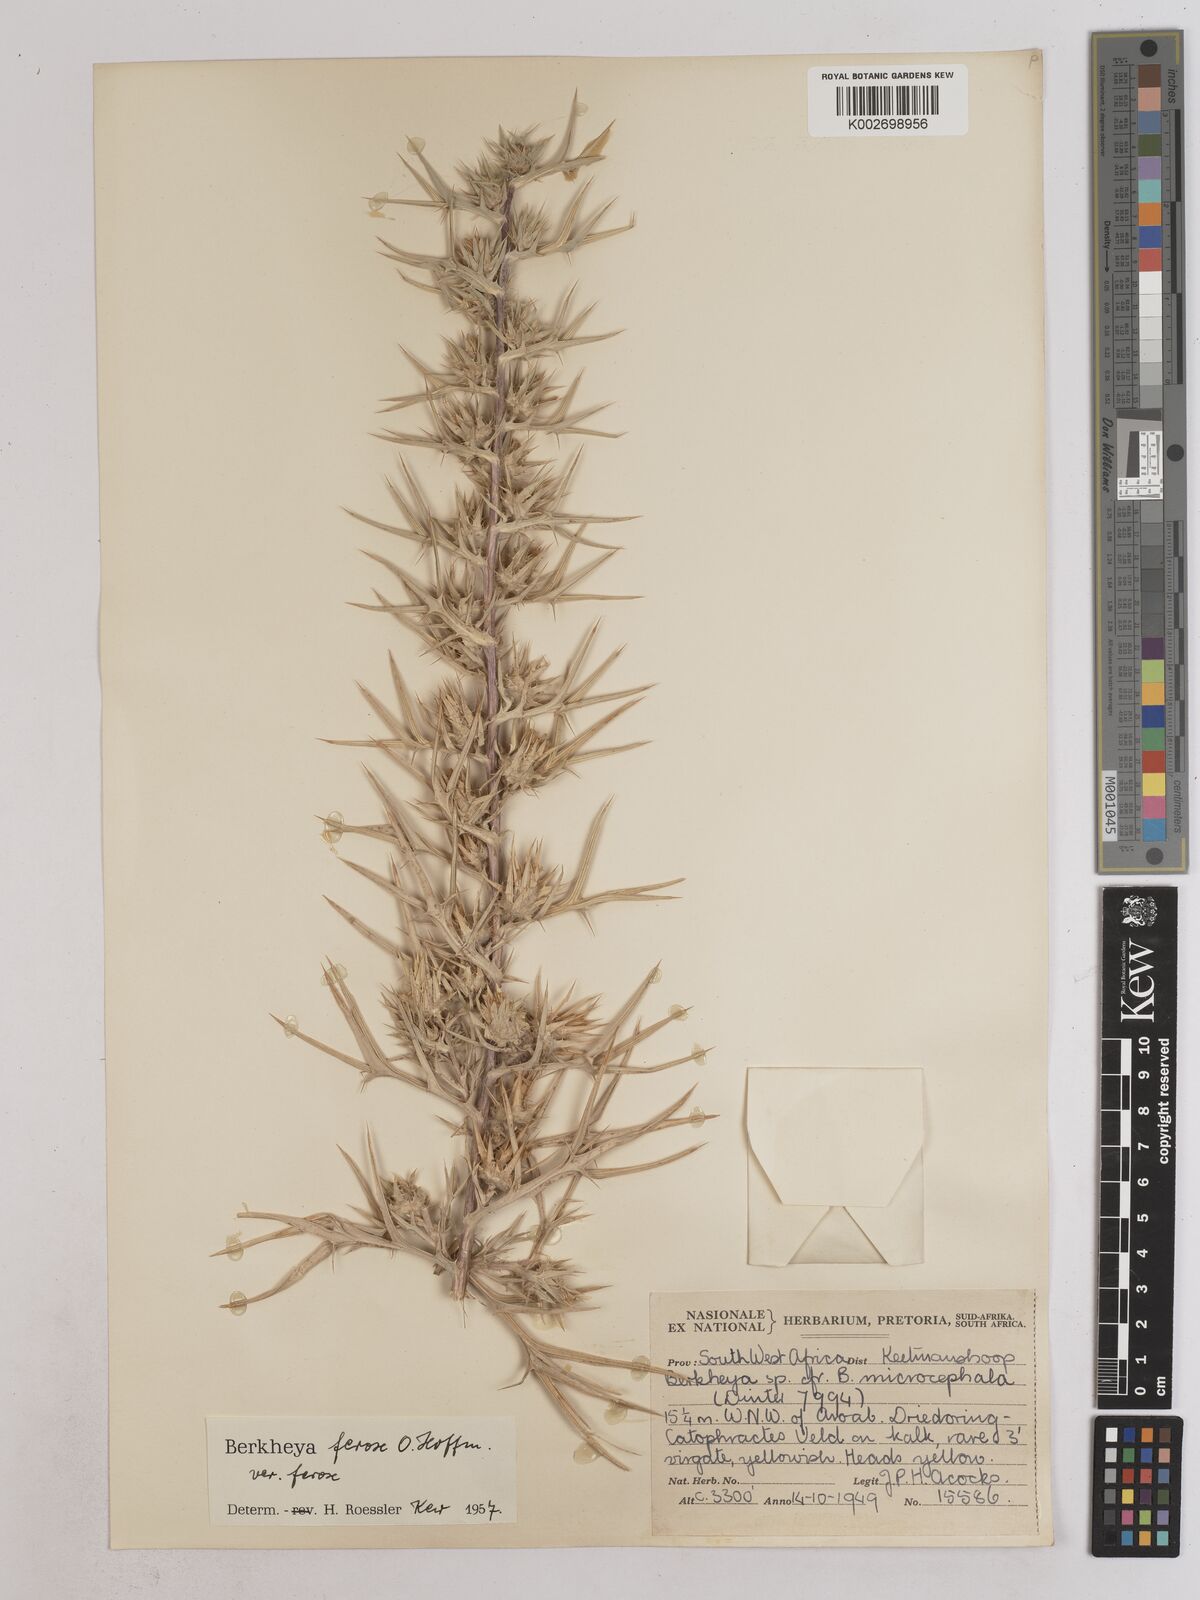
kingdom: Plantae
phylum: Tracheophyta
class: Magnoliopsida
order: Asterales
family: Asteraceae
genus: Berkheya
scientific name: Berkheya ferox
